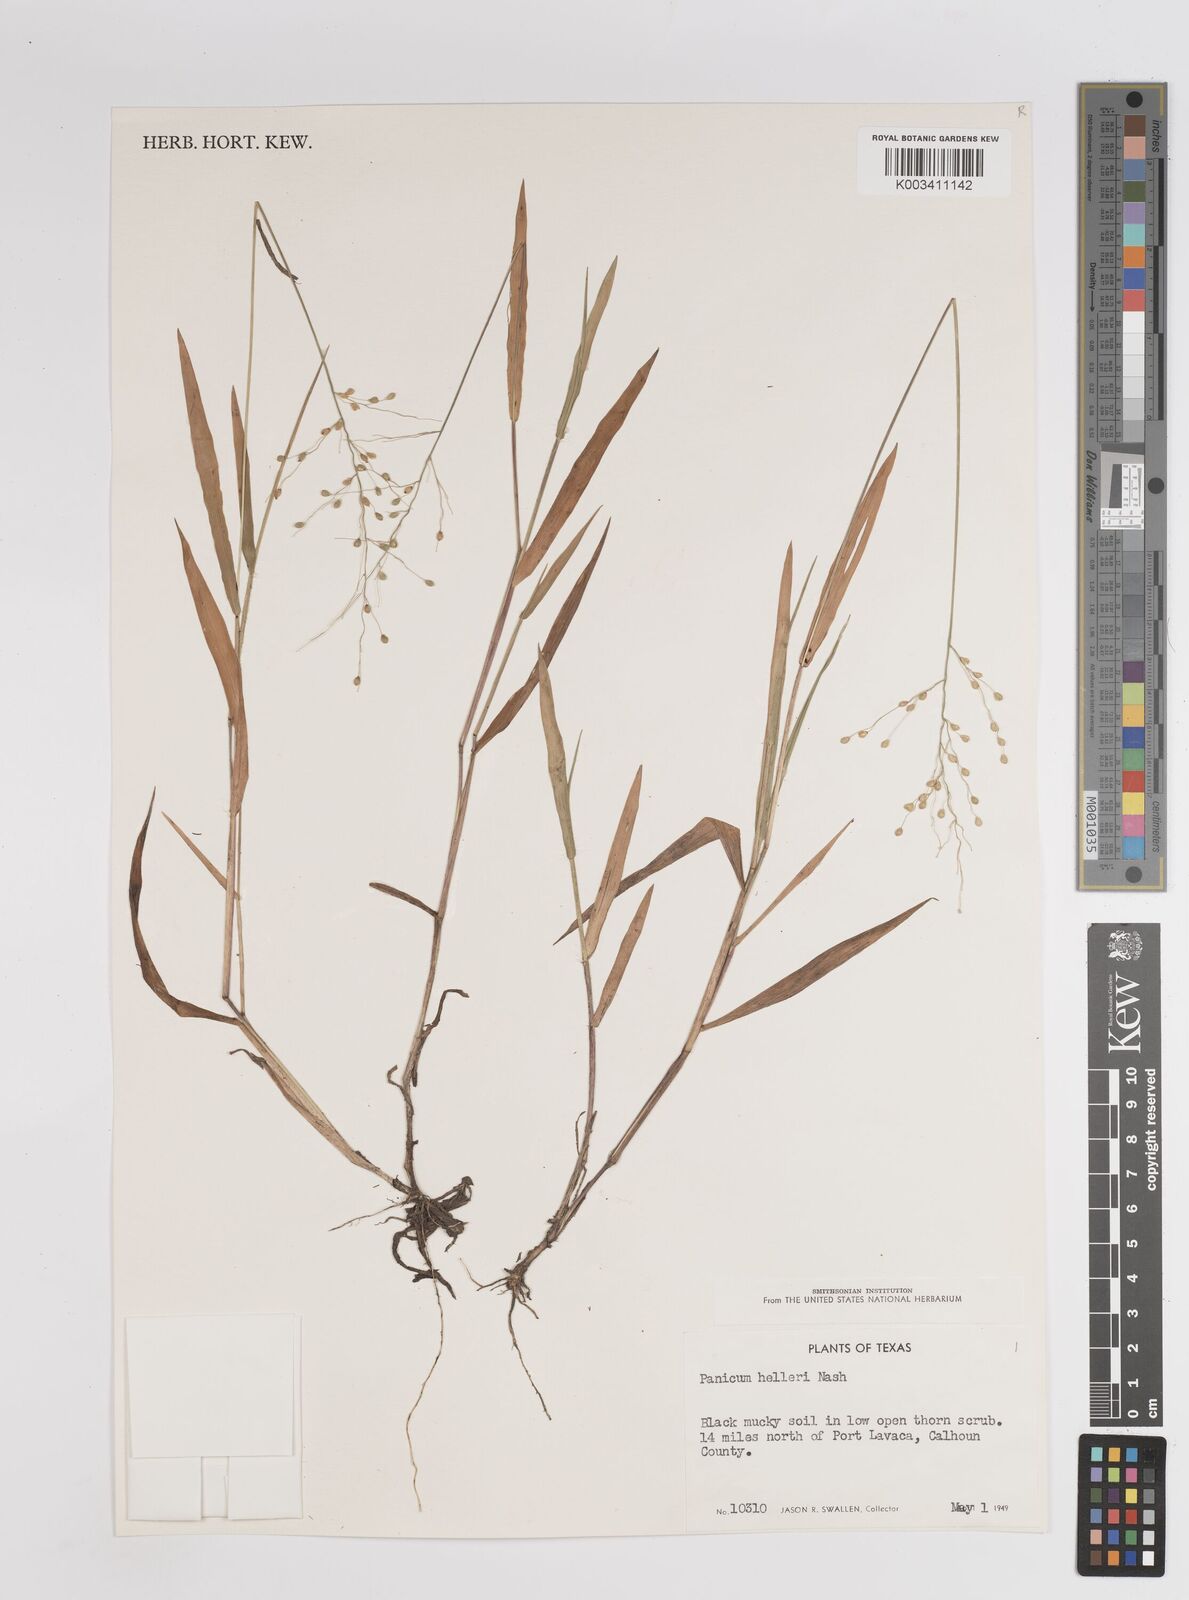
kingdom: Plantae
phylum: Tracheophyta
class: Liliopsida
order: Poales
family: Poaceae
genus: Dichanthelium
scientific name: Dichanthelium oligosanthes
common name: Few-anther obscuregrass
